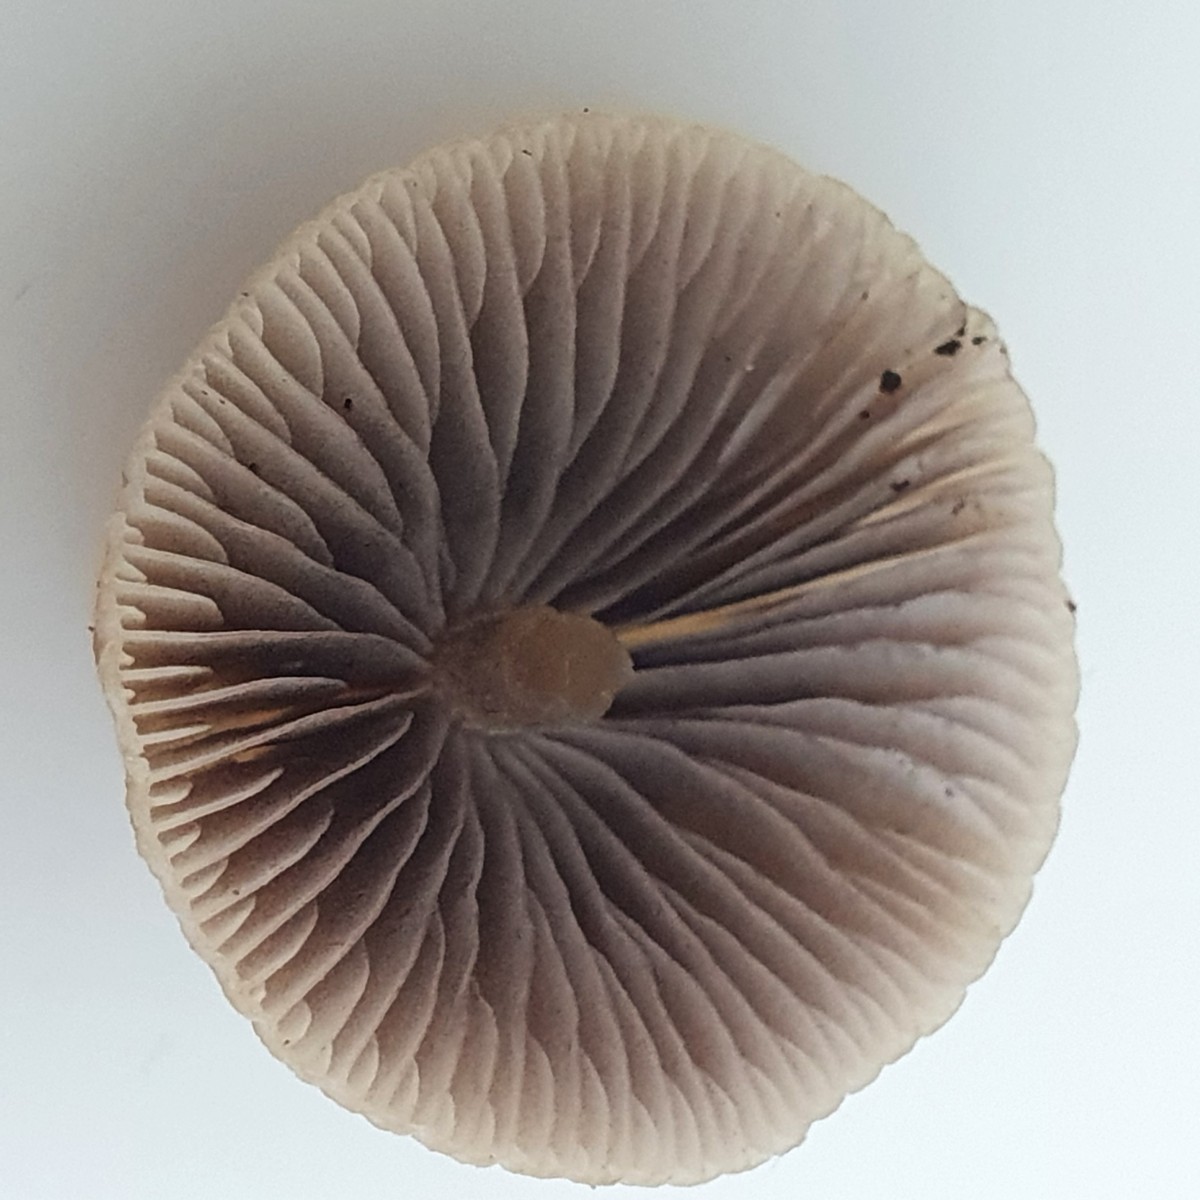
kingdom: Fungi
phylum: Basidiomycota
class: Agaricomycetes
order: Agaricales
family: Psathyrellaceae
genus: Psathyrella
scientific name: Psathyrella
